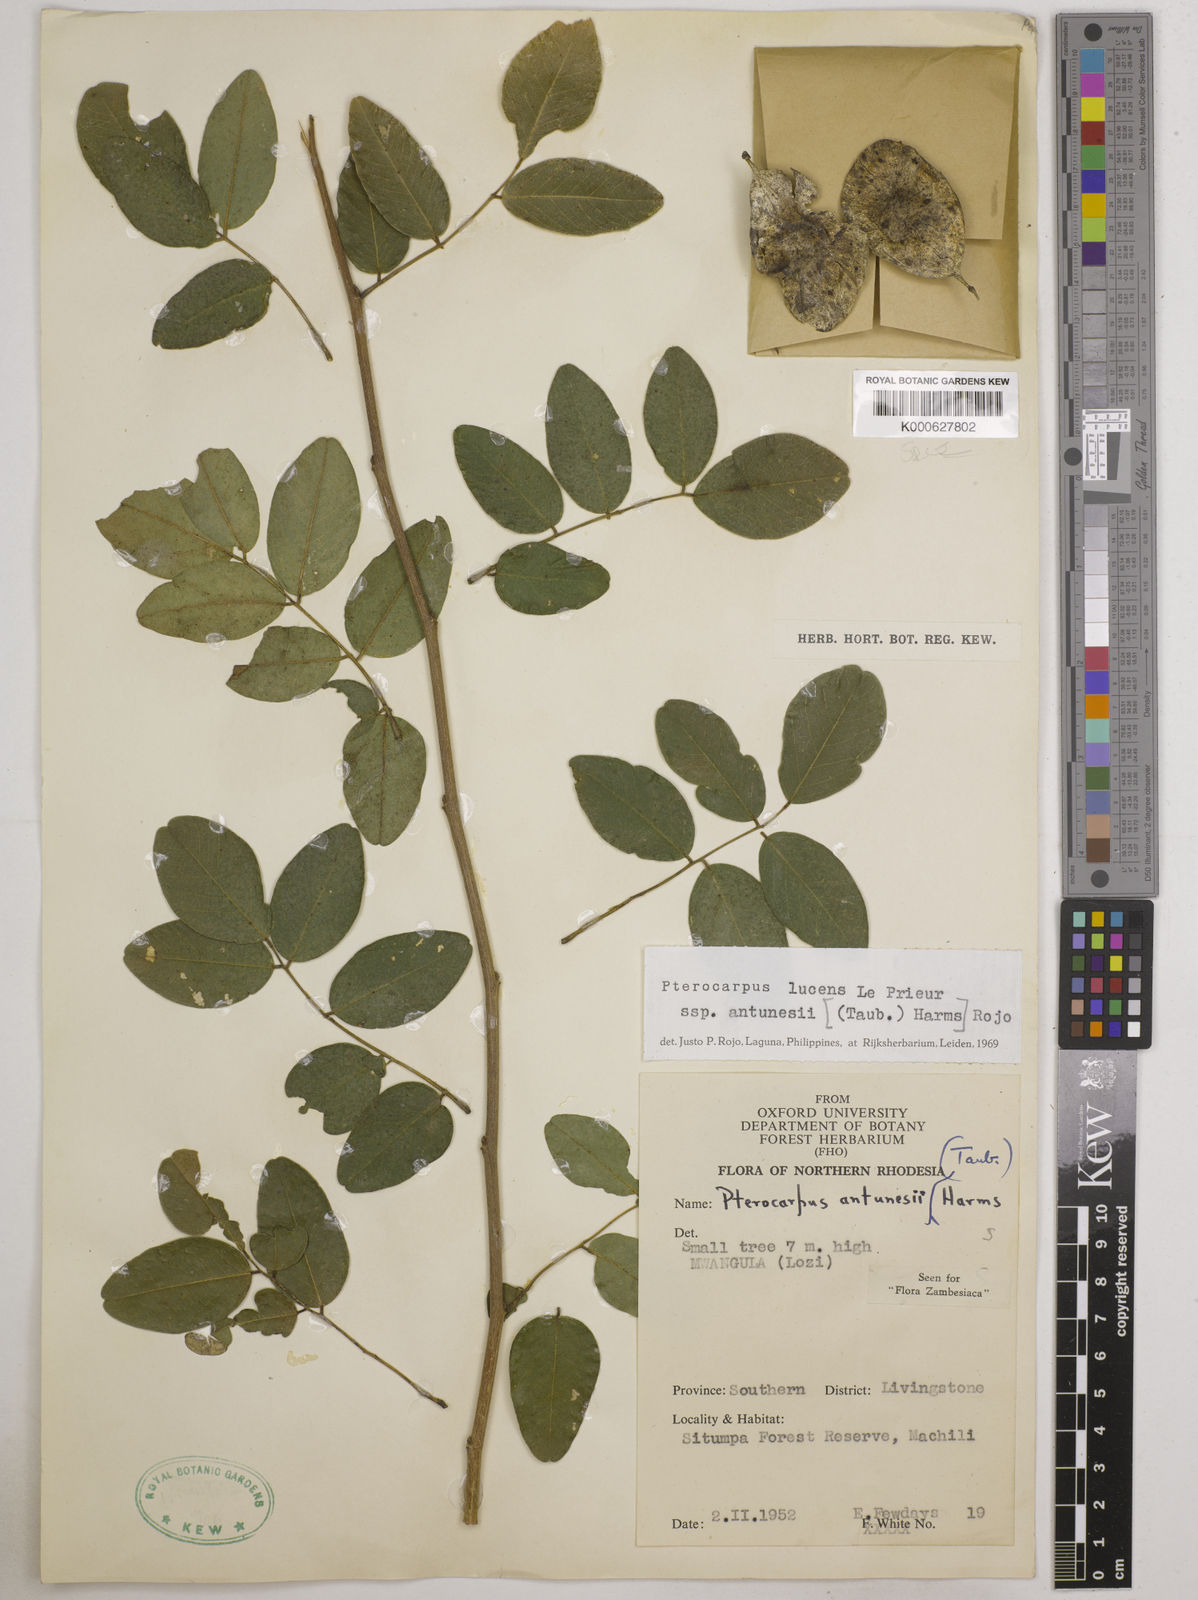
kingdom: Plantae
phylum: Tracheophyta
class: Magnoliopsida
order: Fabales
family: Fabaceae
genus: Pterocarpus
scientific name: Pterocarpus lucens
